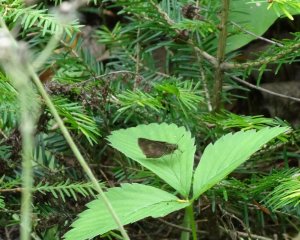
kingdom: Animalia
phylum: Arthropoda
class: Insecta
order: Lepidoptera
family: Hesperiidae
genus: Polites
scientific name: Polites egeremet
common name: Northern Broken-Dash
